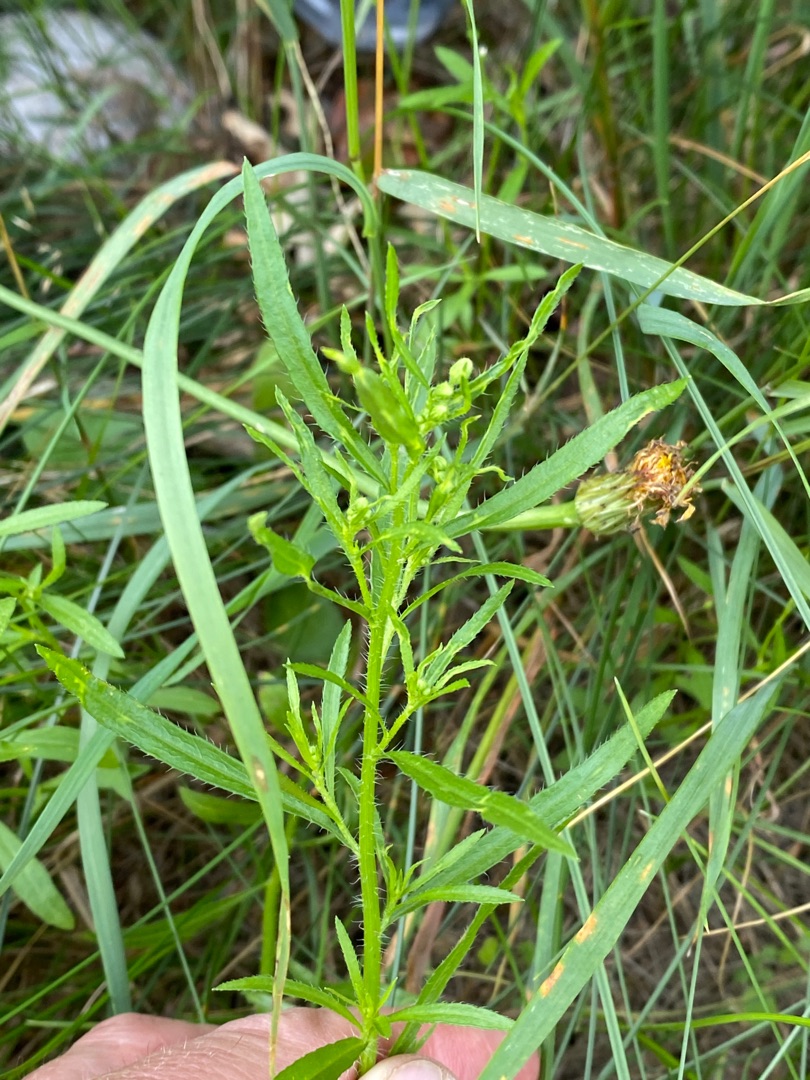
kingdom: Plantae
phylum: Tracheophyta
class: Magnoliopsida
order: Asterales
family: Asteraceae
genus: Erigeron
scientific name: Erigeron canadensis
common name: Kanadisk bakkestjerne
